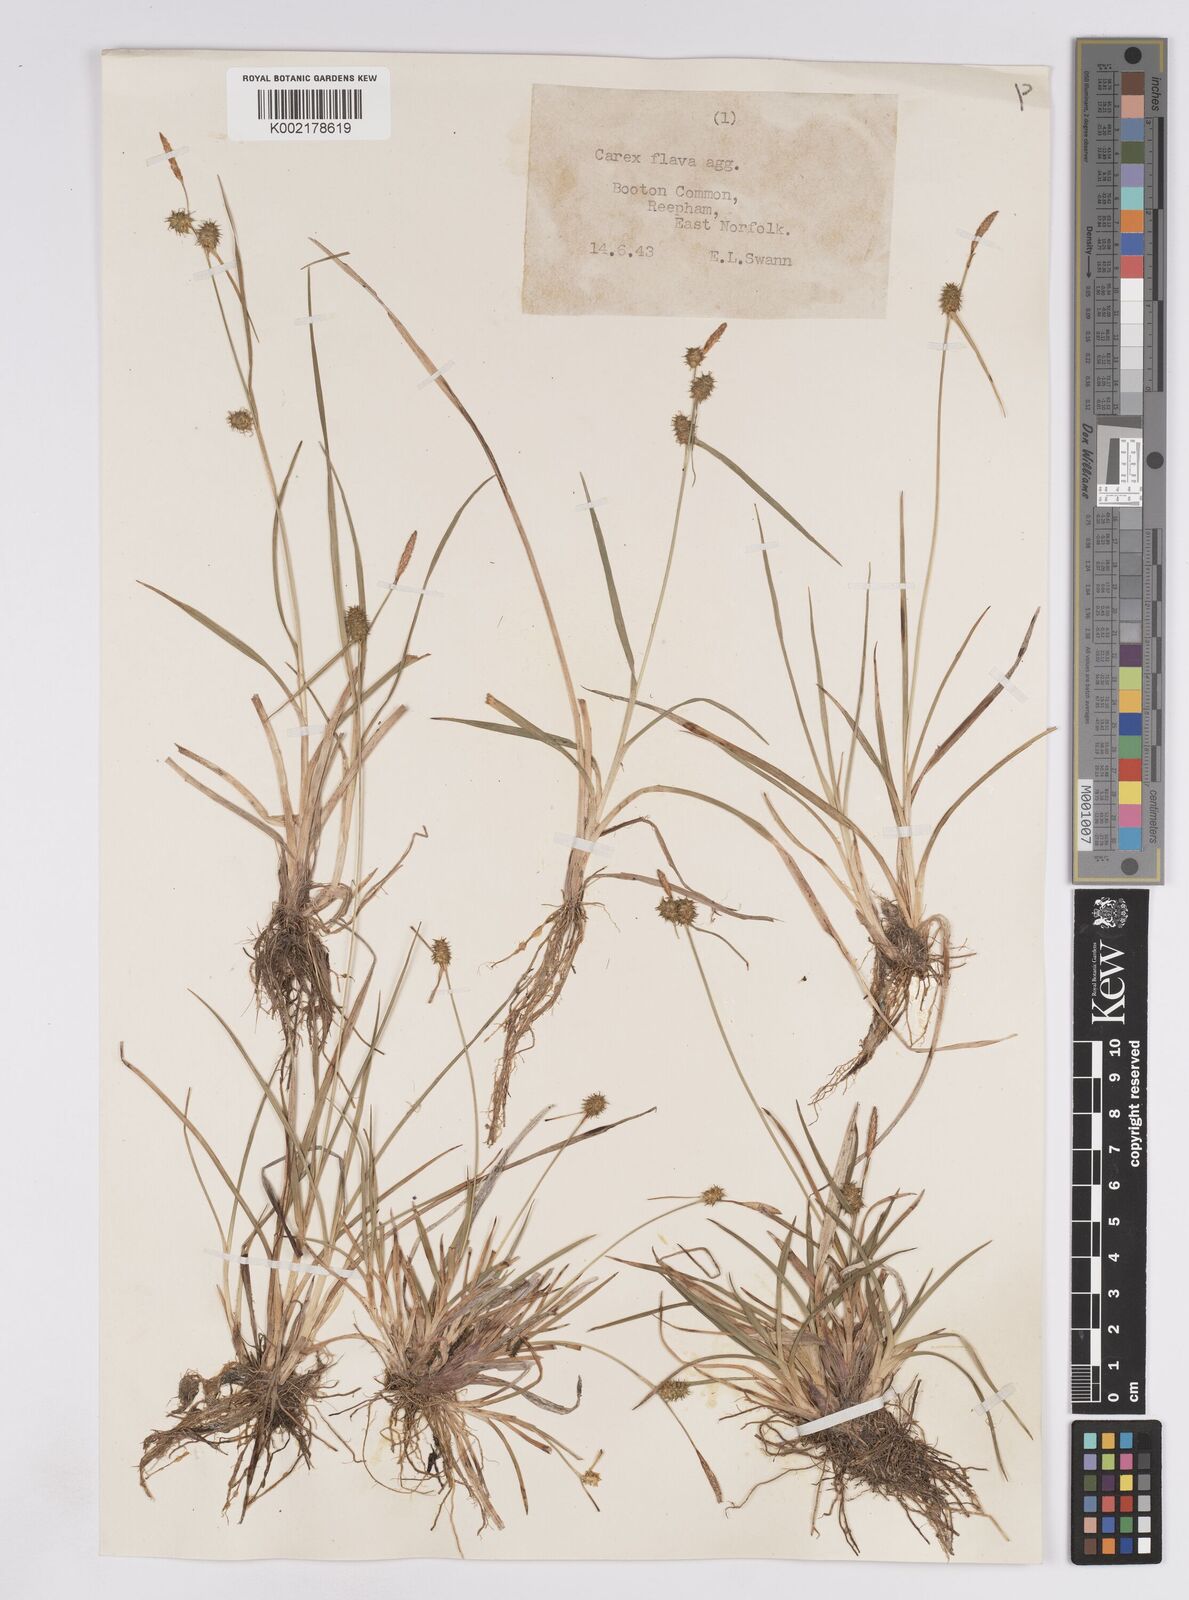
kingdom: Plantae
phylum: Tracheophyta
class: Liliopsida
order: Poales
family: Cyperaceae
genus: Carex
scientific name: Carex lepidocarpa
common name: Long-stalked yellow-sedge
